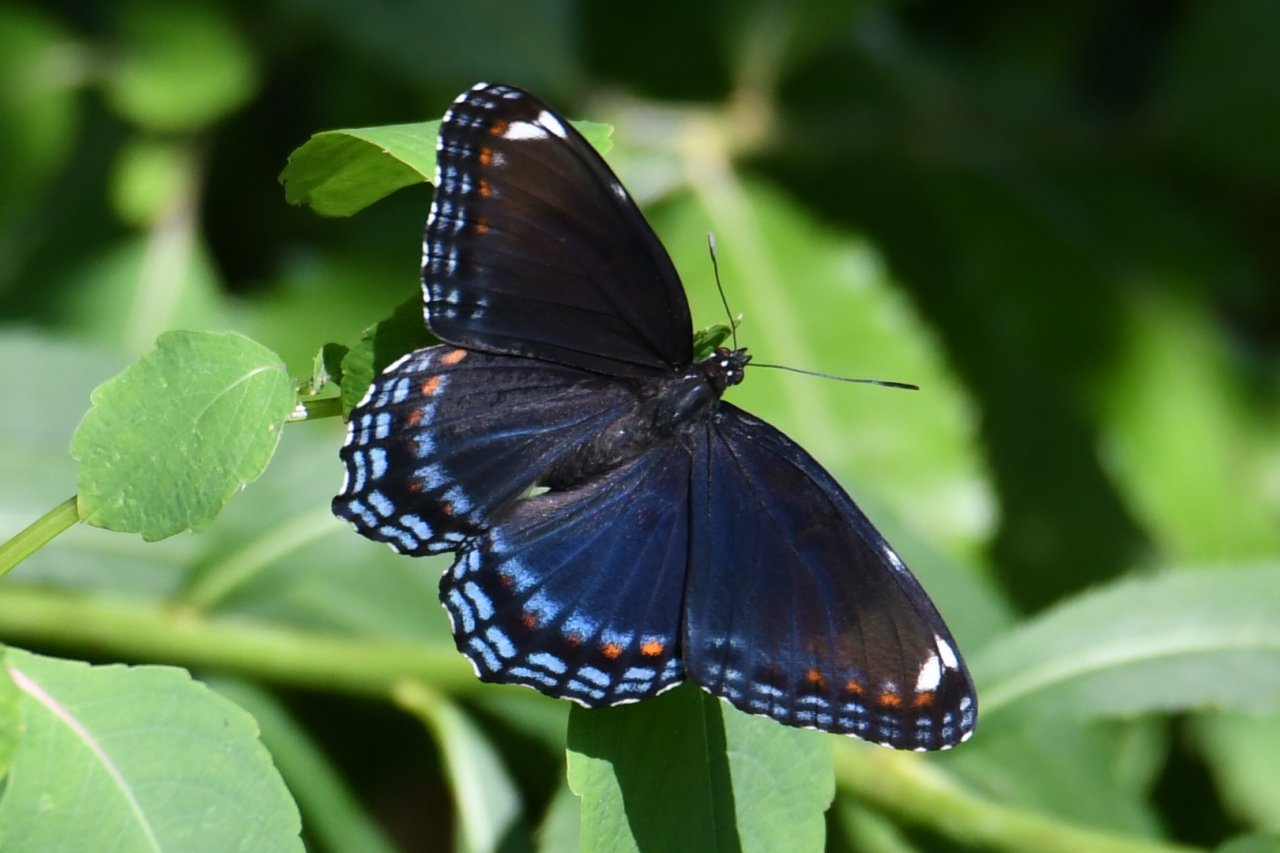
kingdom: Animalia
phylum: Arthropoda
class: Insecta
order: Lepidoptera
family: Nymphalidae
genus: Limenitis
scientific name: Limenitis astyanax
